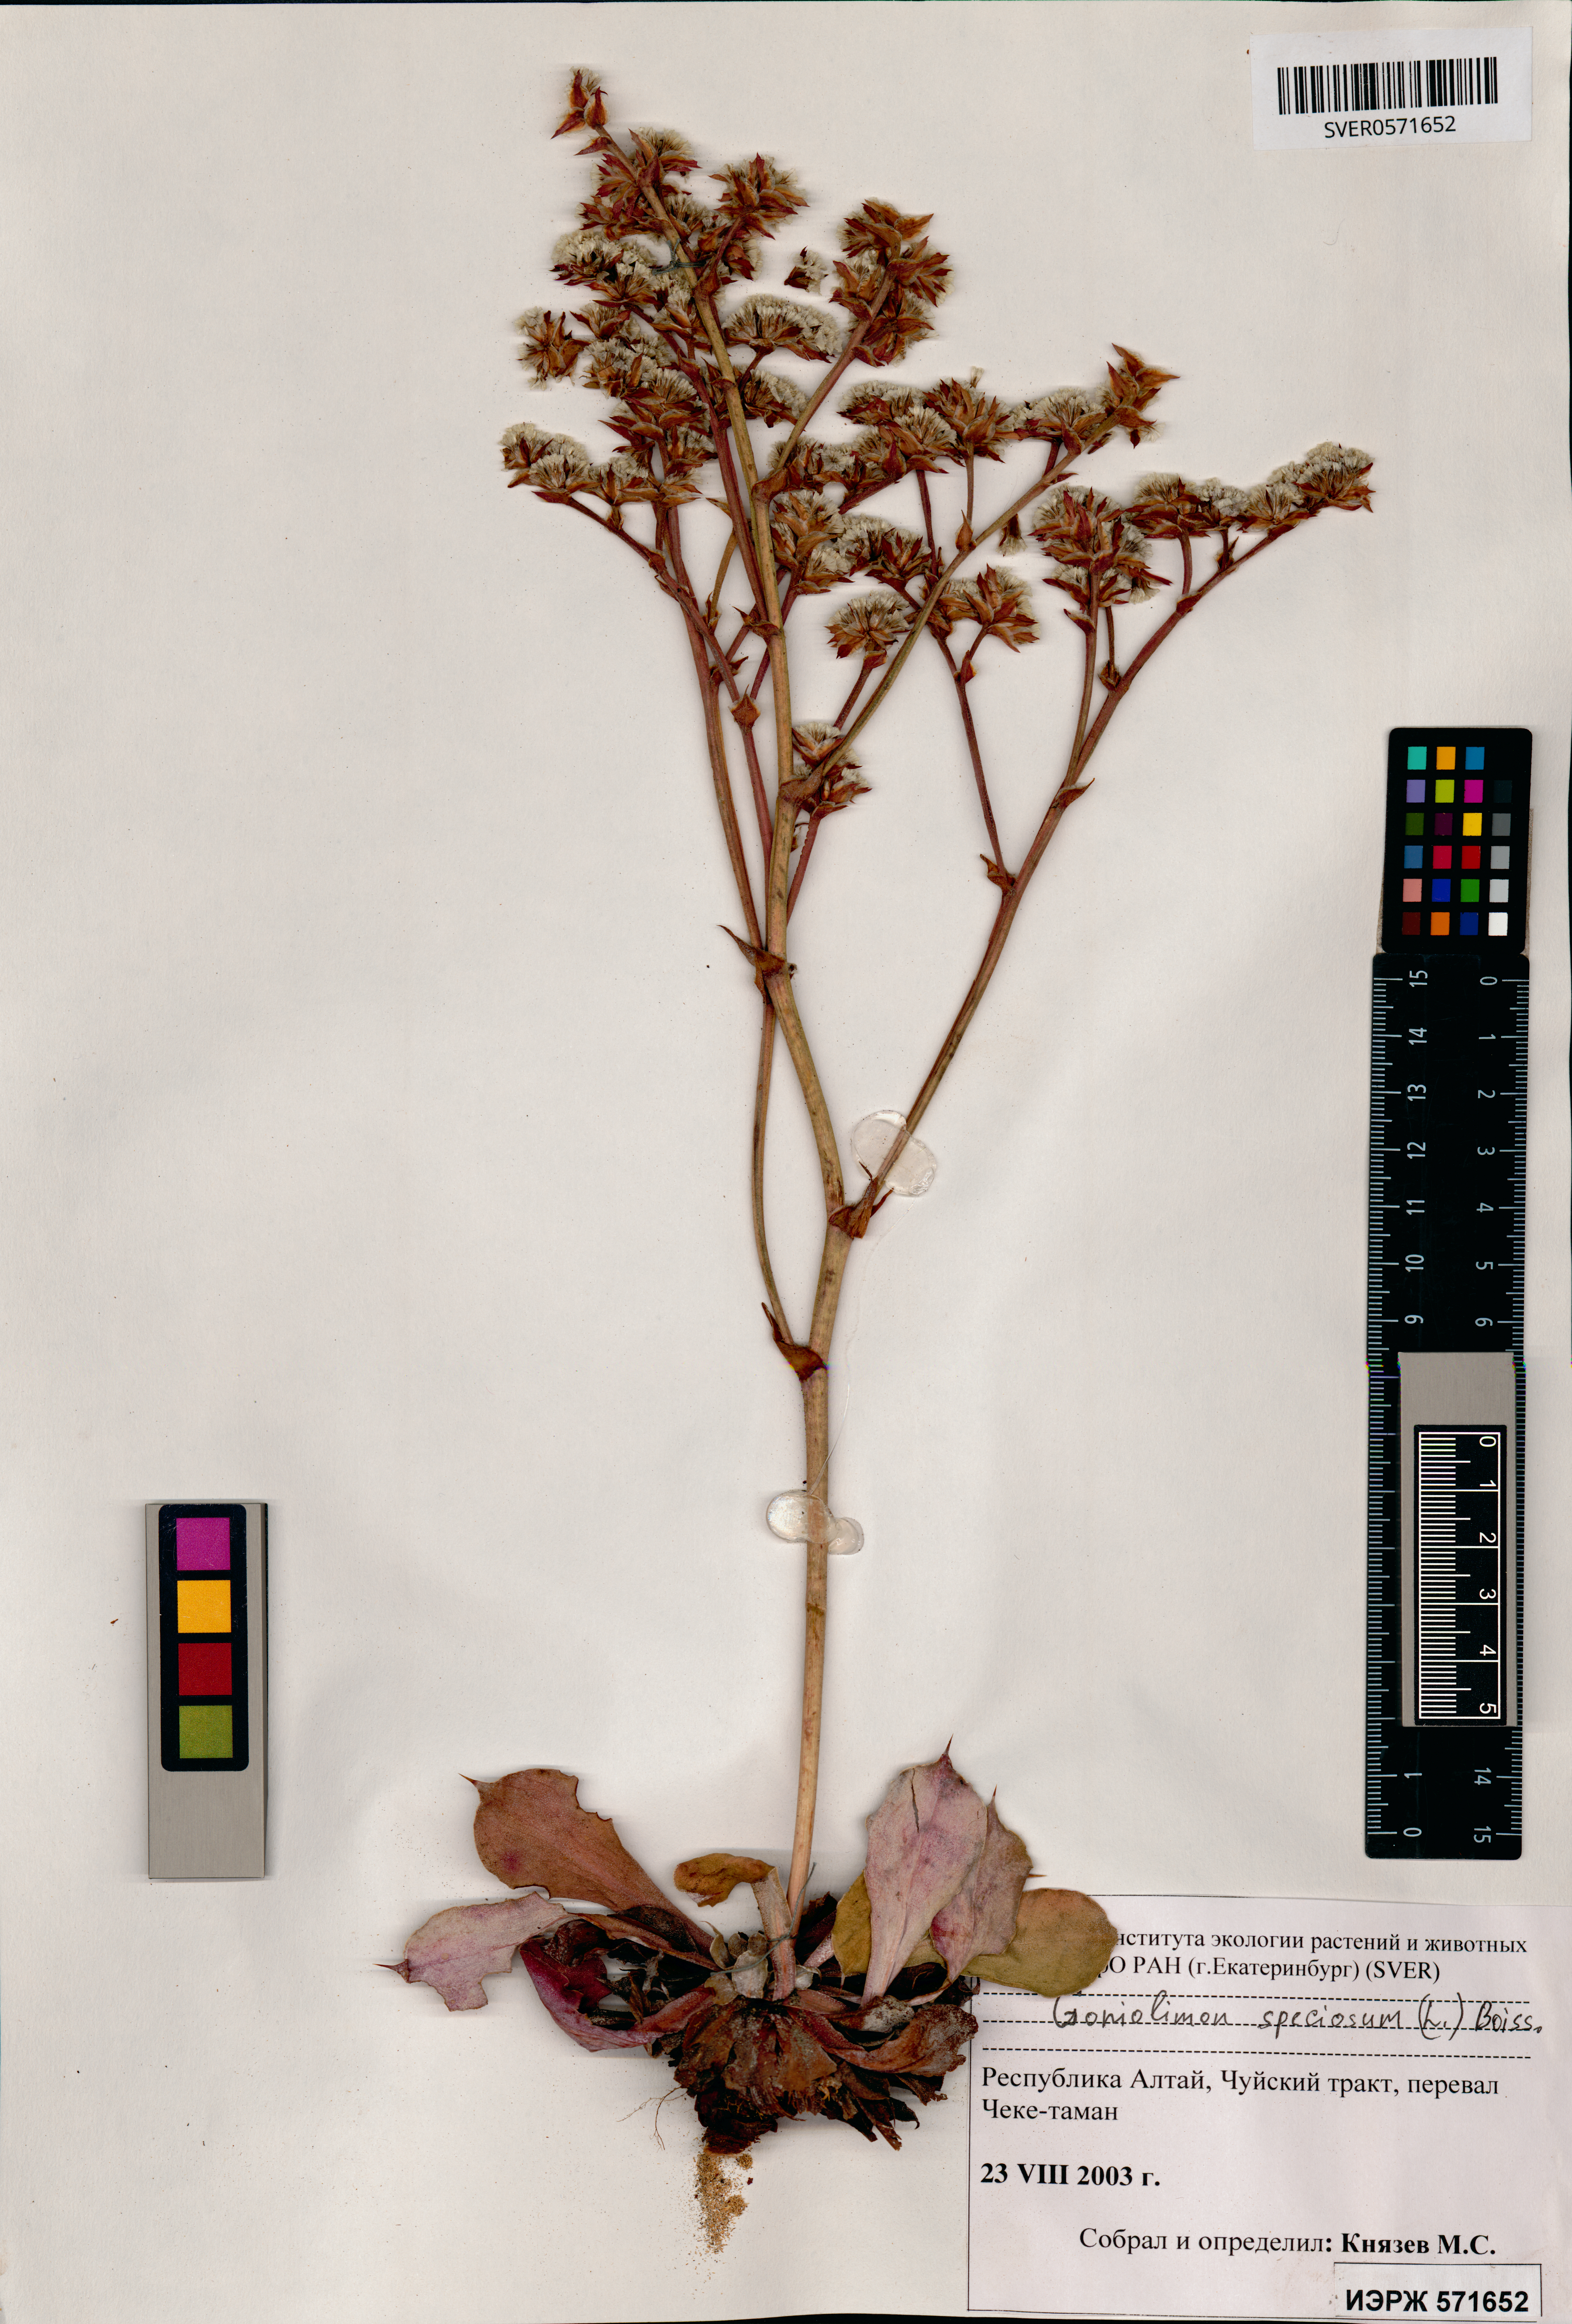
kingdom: Plantae
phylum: Tracheophyta
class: Magnoliopsida
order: Caryophyllales
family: Plumbaginaceae
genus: Goniolimon
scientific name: Goniolimon speciosum
